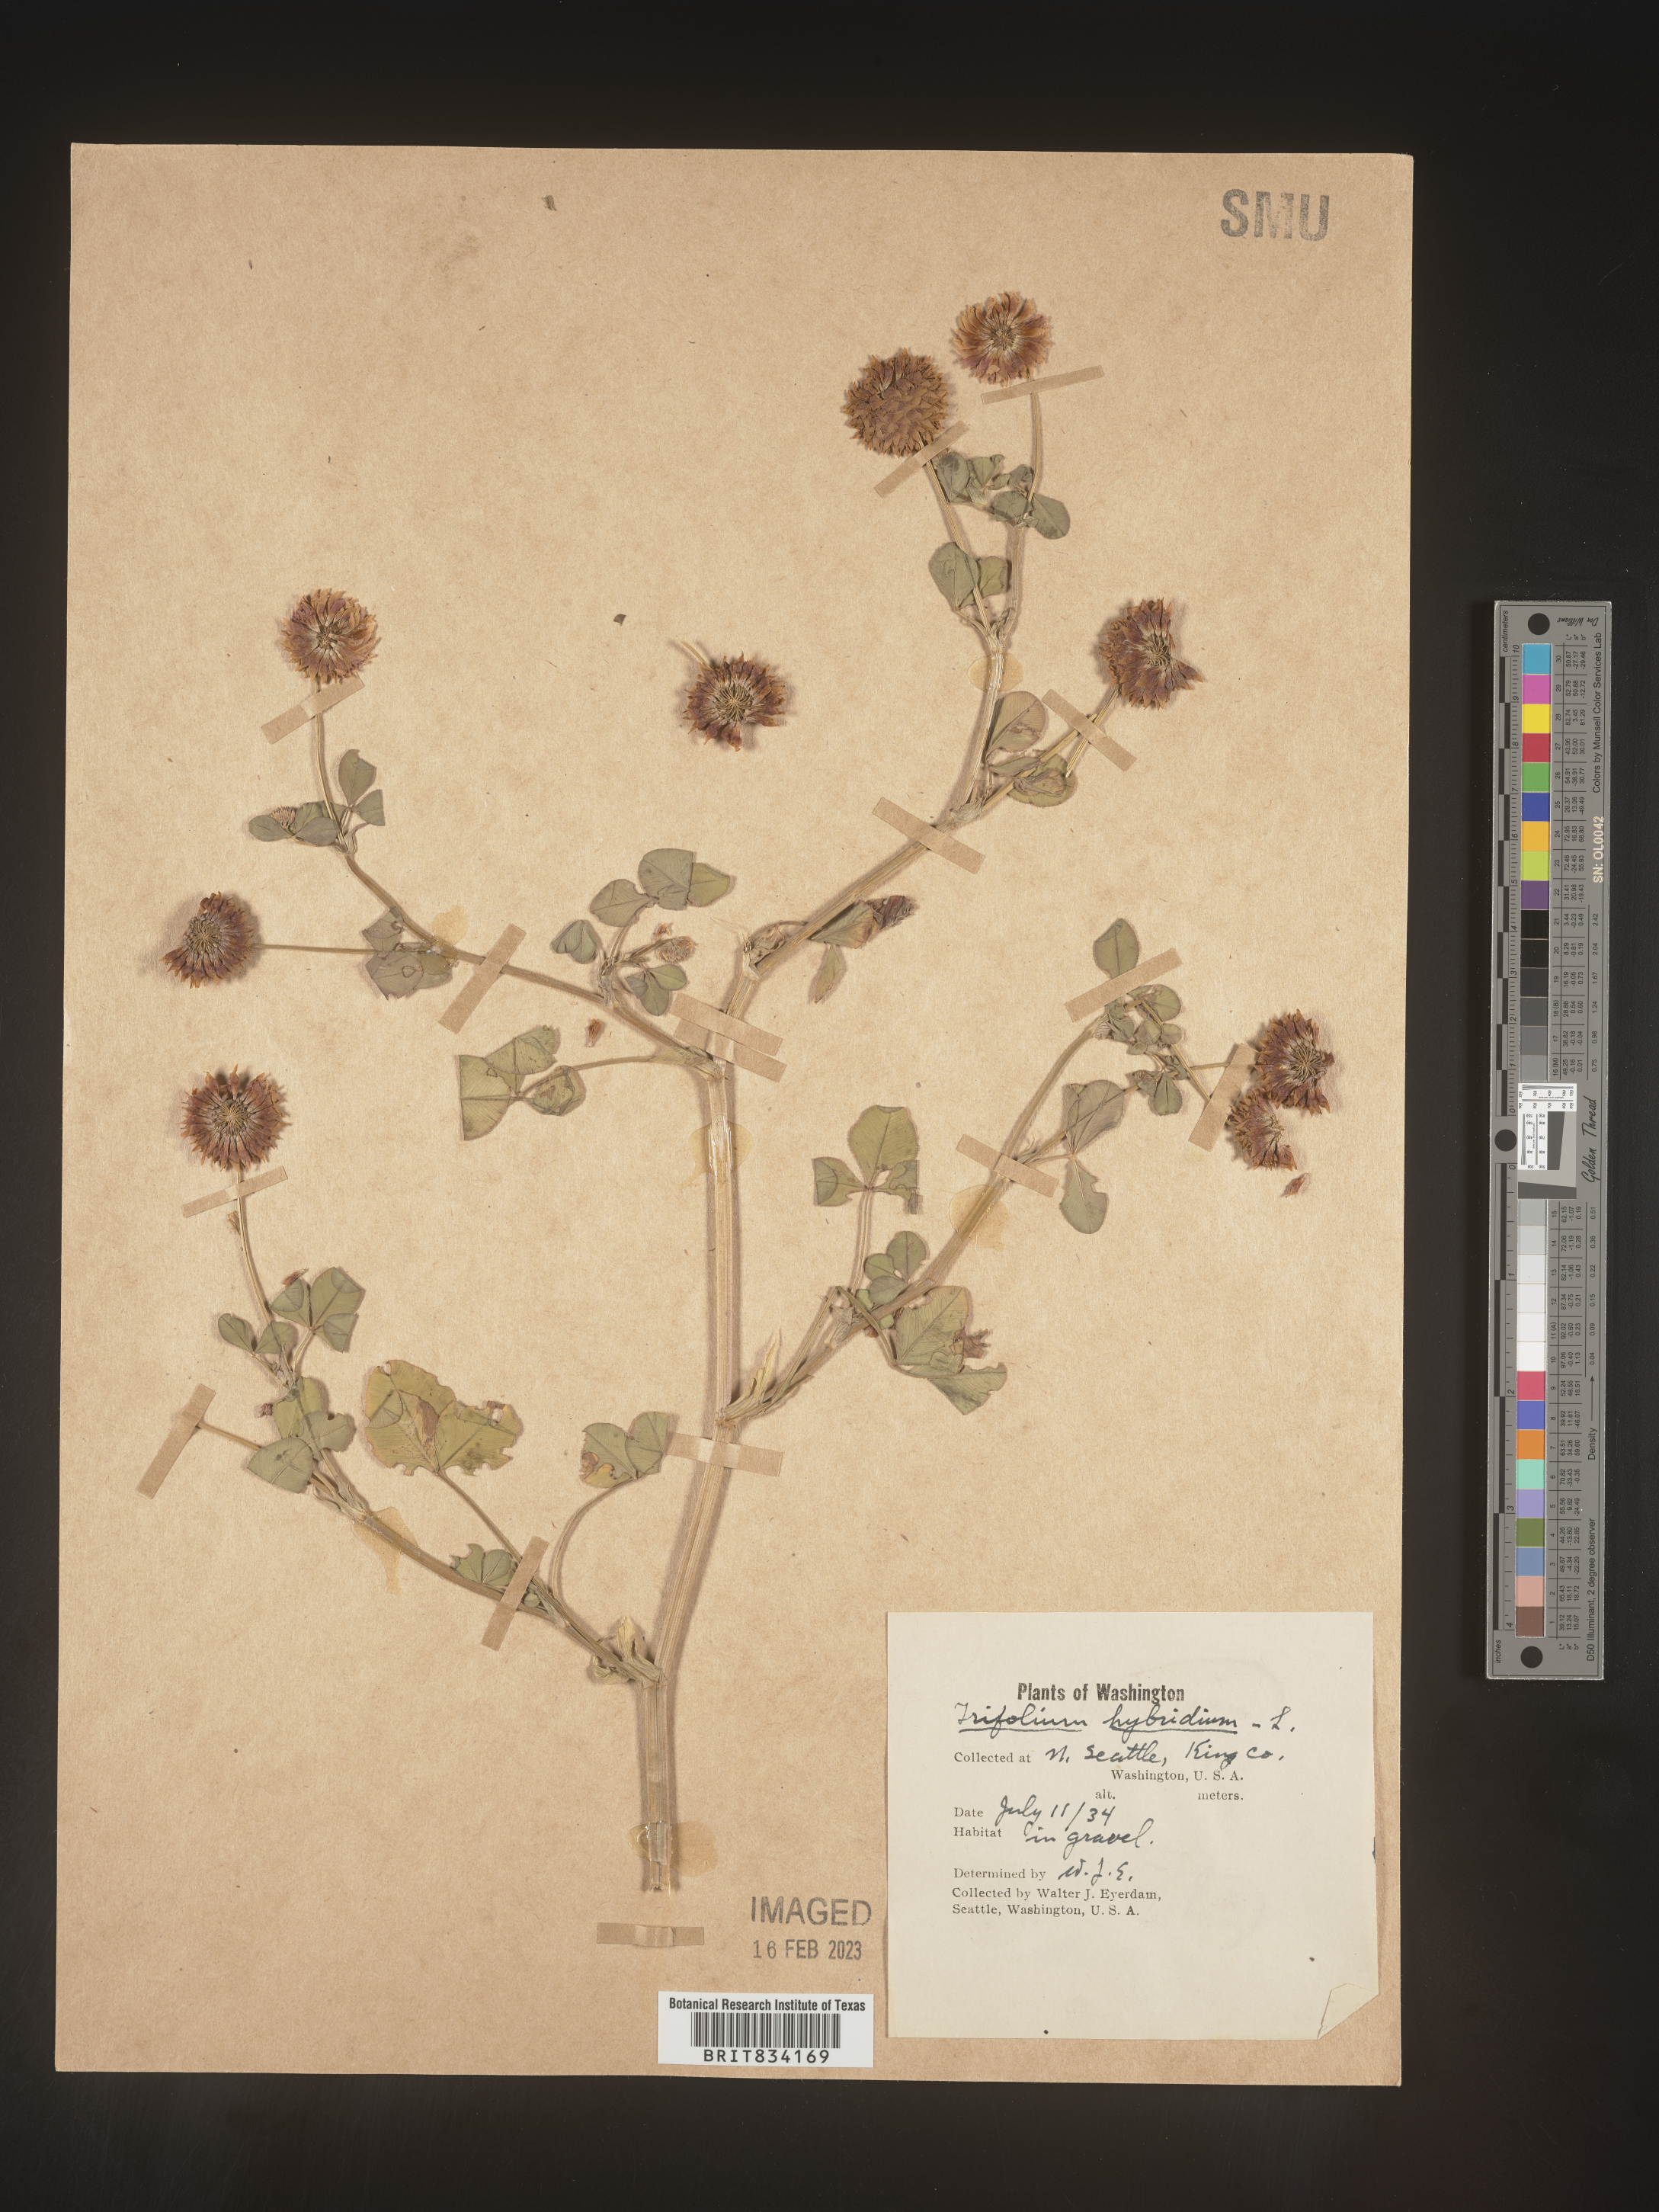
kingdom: Plantae
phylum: Tracheophyta
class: Magnoliopsida
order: Fabales
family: Fabaceae
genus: Trifolium
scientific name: Trifolium hybridum
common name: Alsike clover
